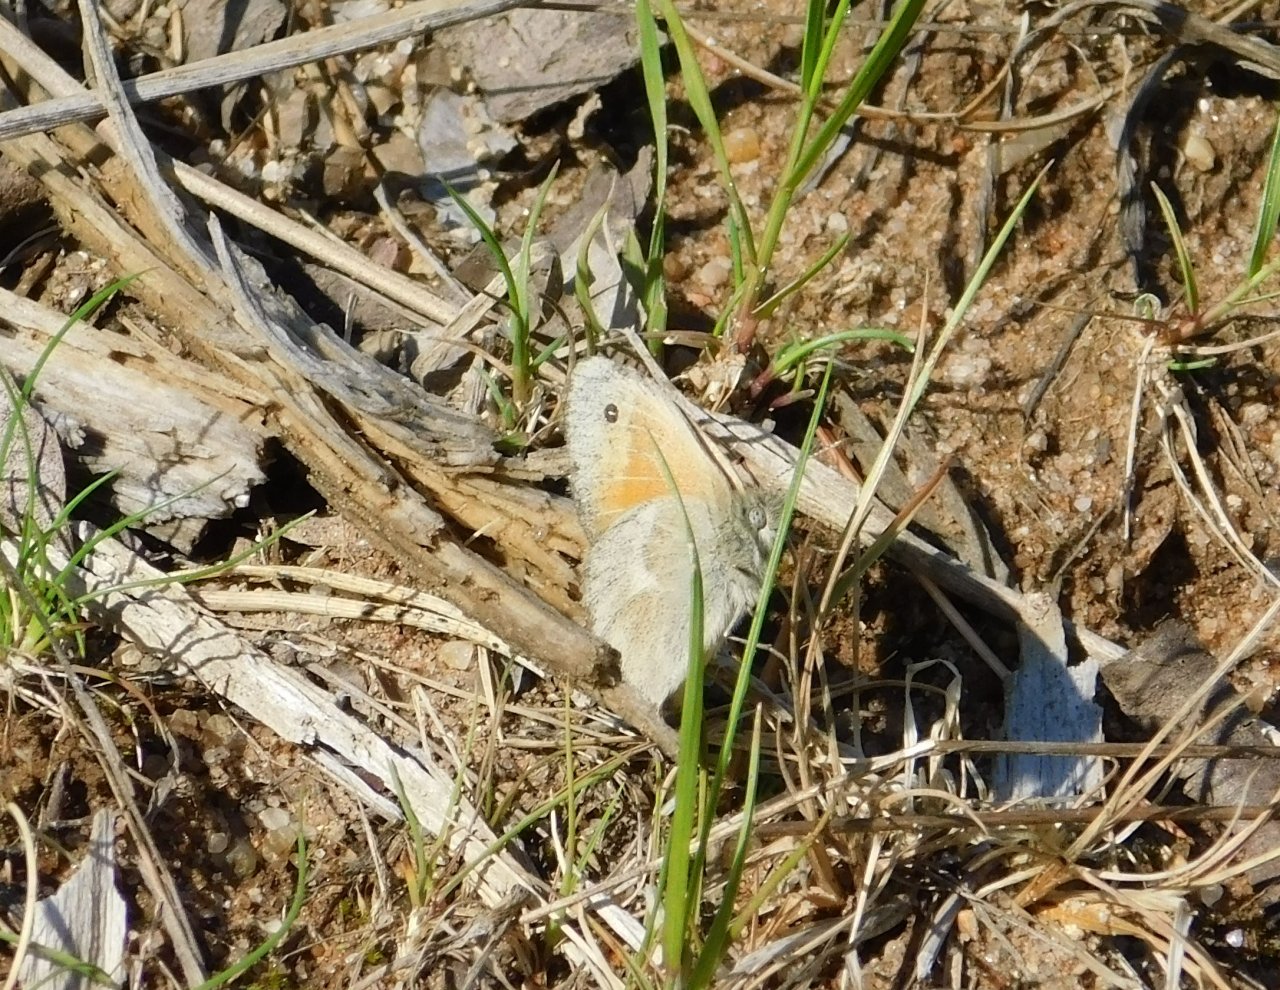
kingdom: Animalia
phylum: Arthropoda
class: Insecta
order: Lepidoptera
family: Nymphalidae
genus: Coenonympha
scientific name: Coenonympha tullia
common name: Large Heath
